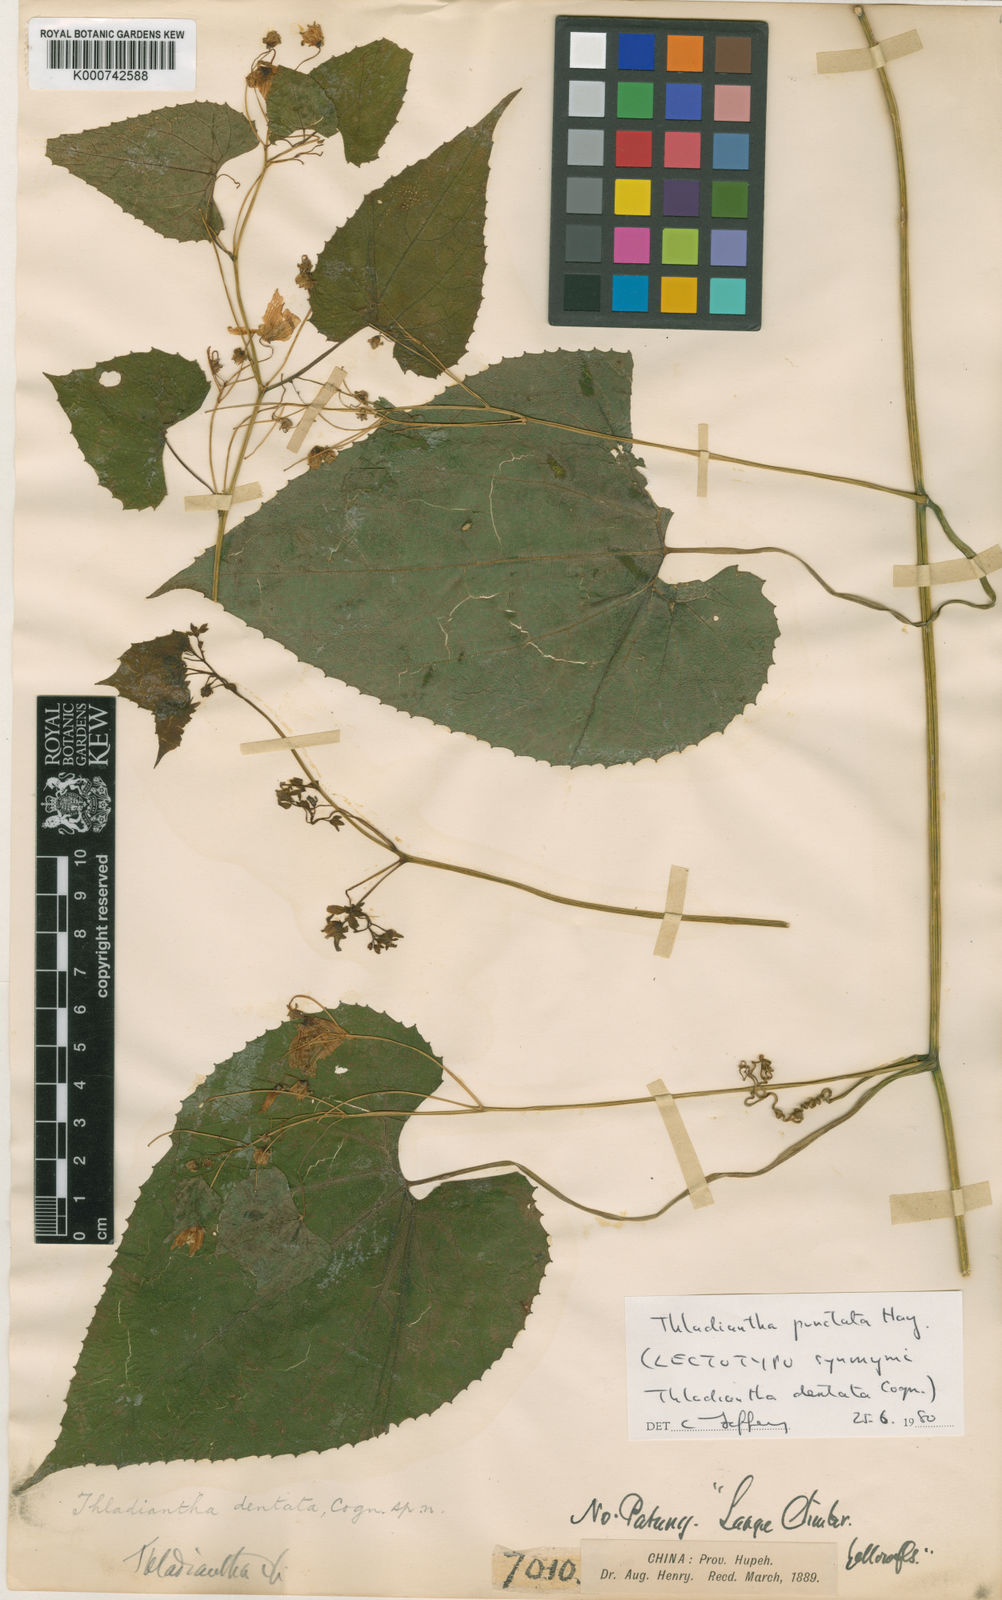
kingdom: Plantae
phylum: Tracheophyta
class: Magnoliopsida
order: Cucurbitales
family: Cucurbitaceae
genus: Thladiantha
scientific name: Thladiantha punctata
